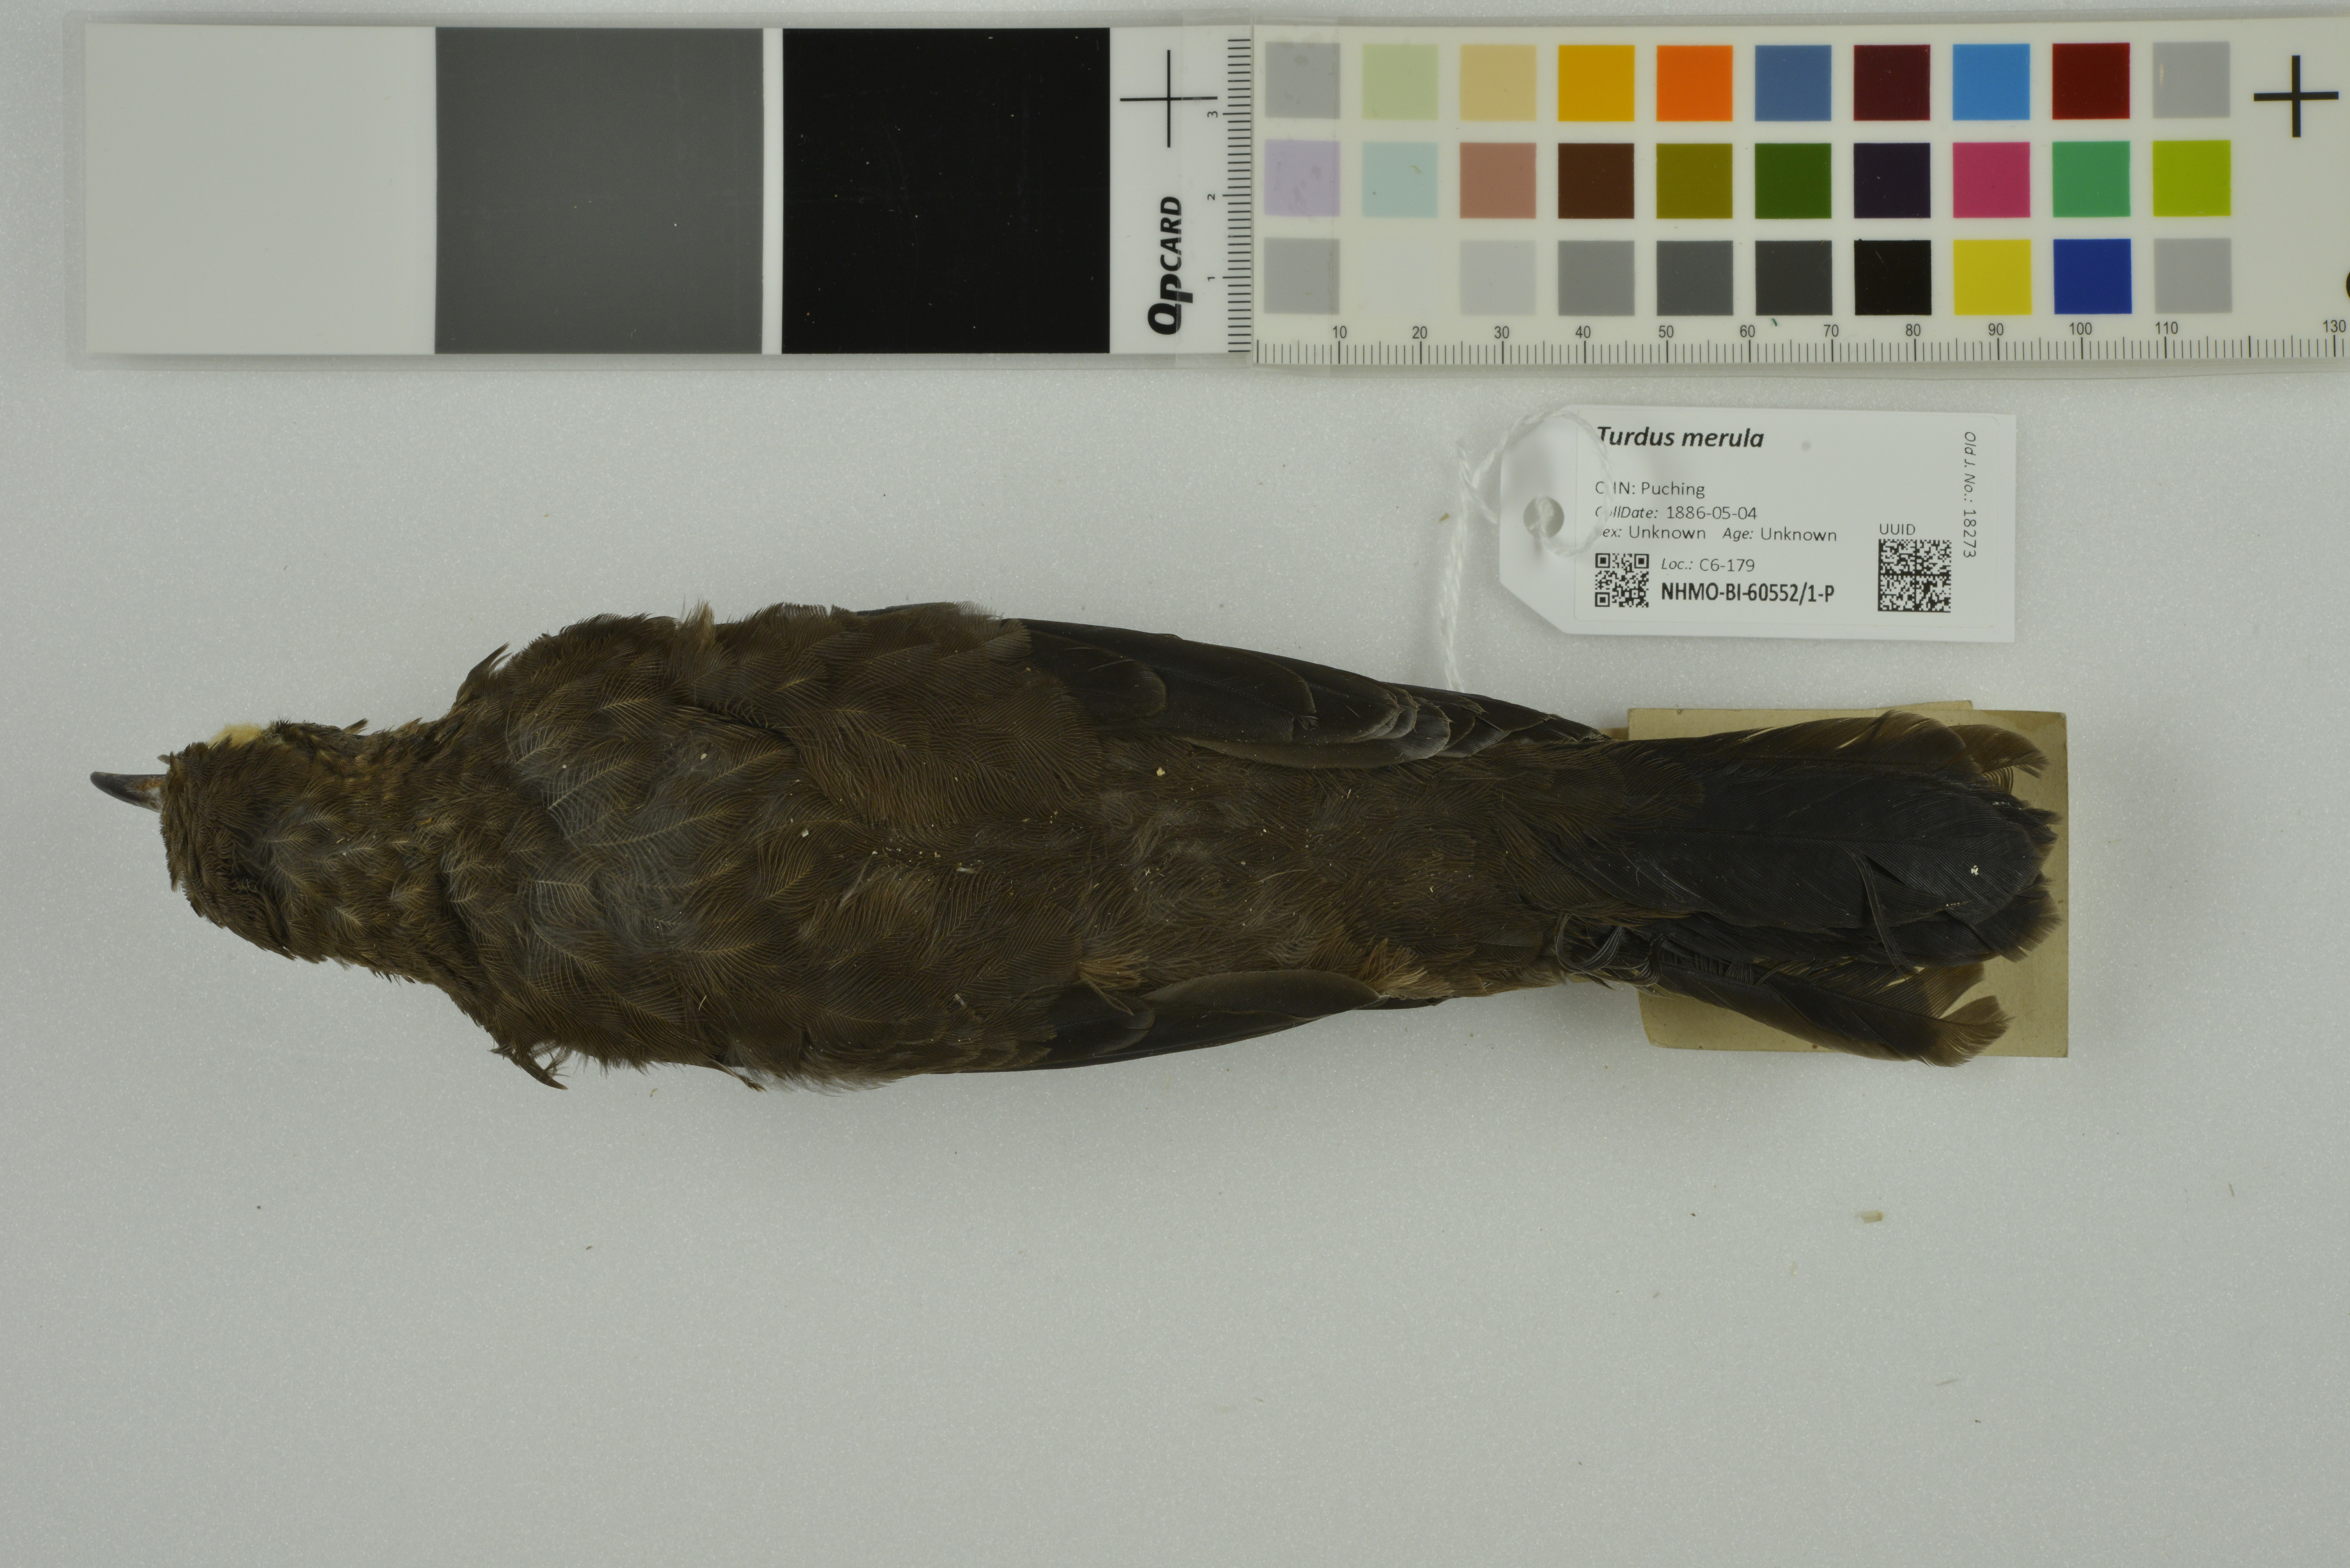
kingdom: Animalia
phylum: Chordata
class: Aves
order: Passeriformes
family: Turdidae
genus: Turdus
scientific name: Turdus mandarinus
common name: Chinese blackbird
